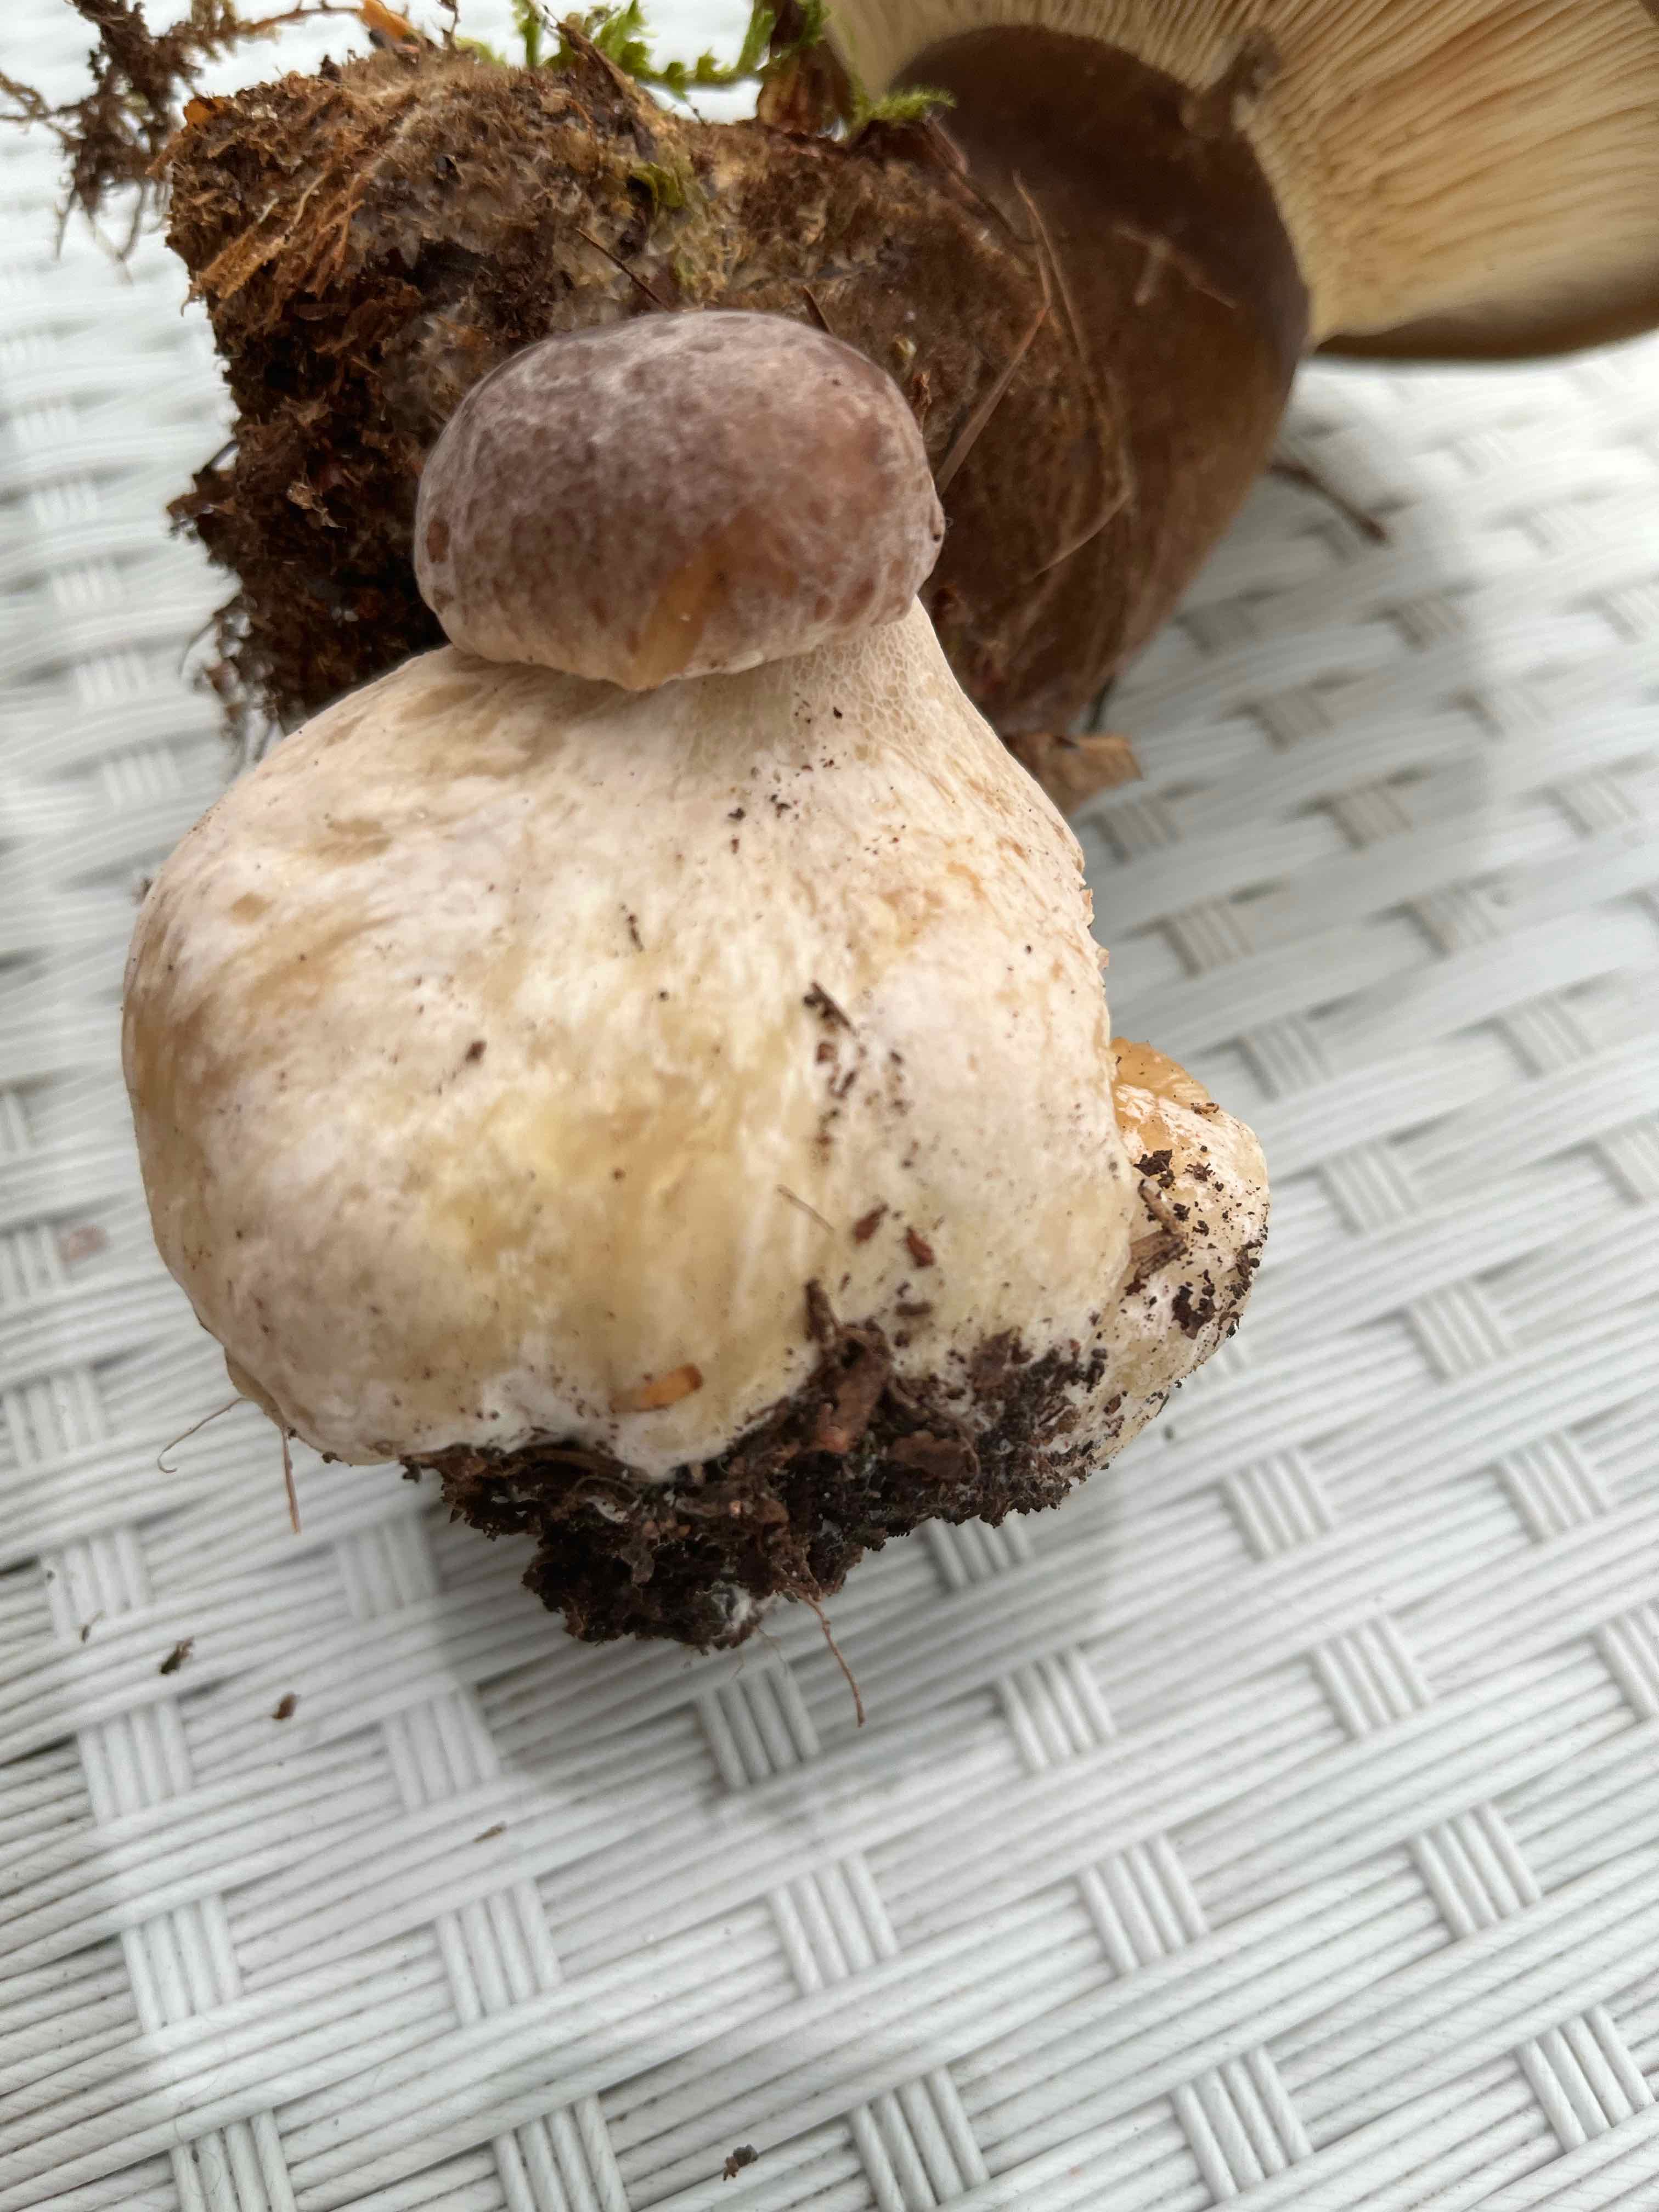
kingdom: Fungi
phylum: Basidiomycota
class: Agaricomycetes
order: Boletales
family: Boletaceae
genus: Boletus
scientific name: Boletus edulis
